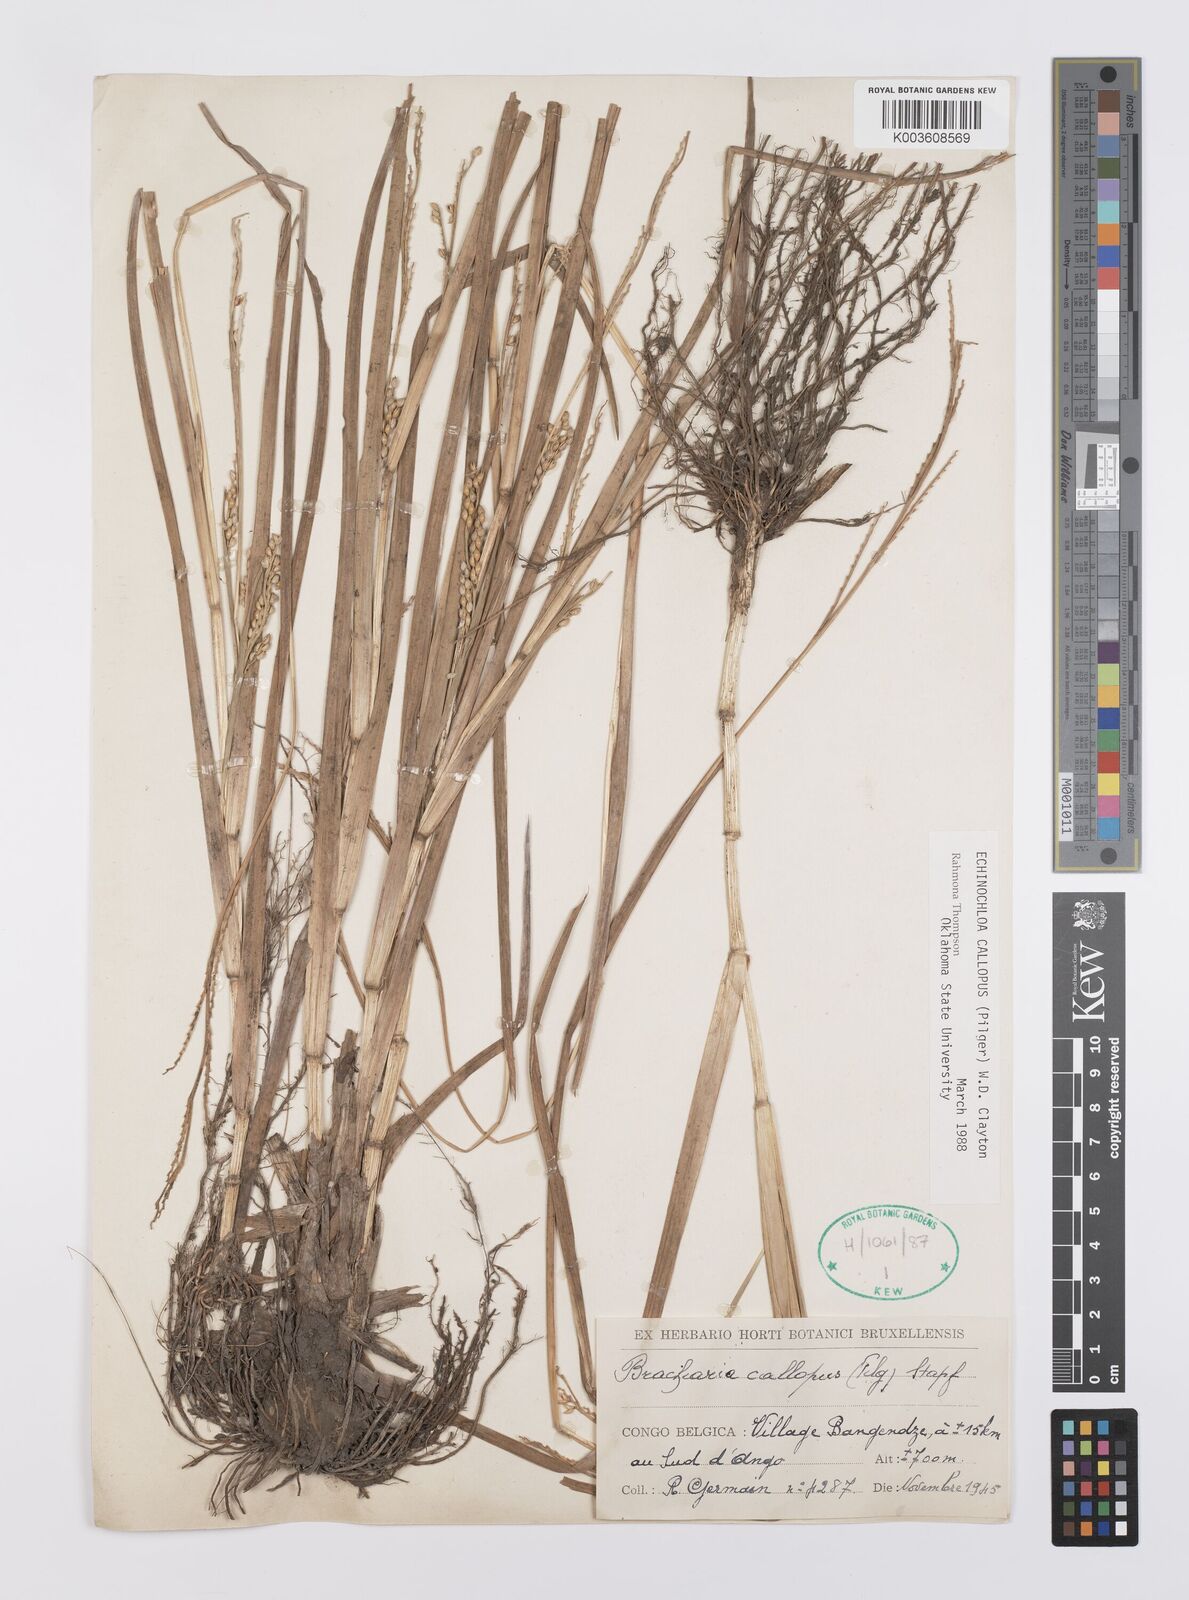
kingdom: Plantae
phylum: Tracheophyta
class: Liliopsida
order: Poales
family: Poaceae
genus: Echinochloa
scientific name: Echinochloa callopus
